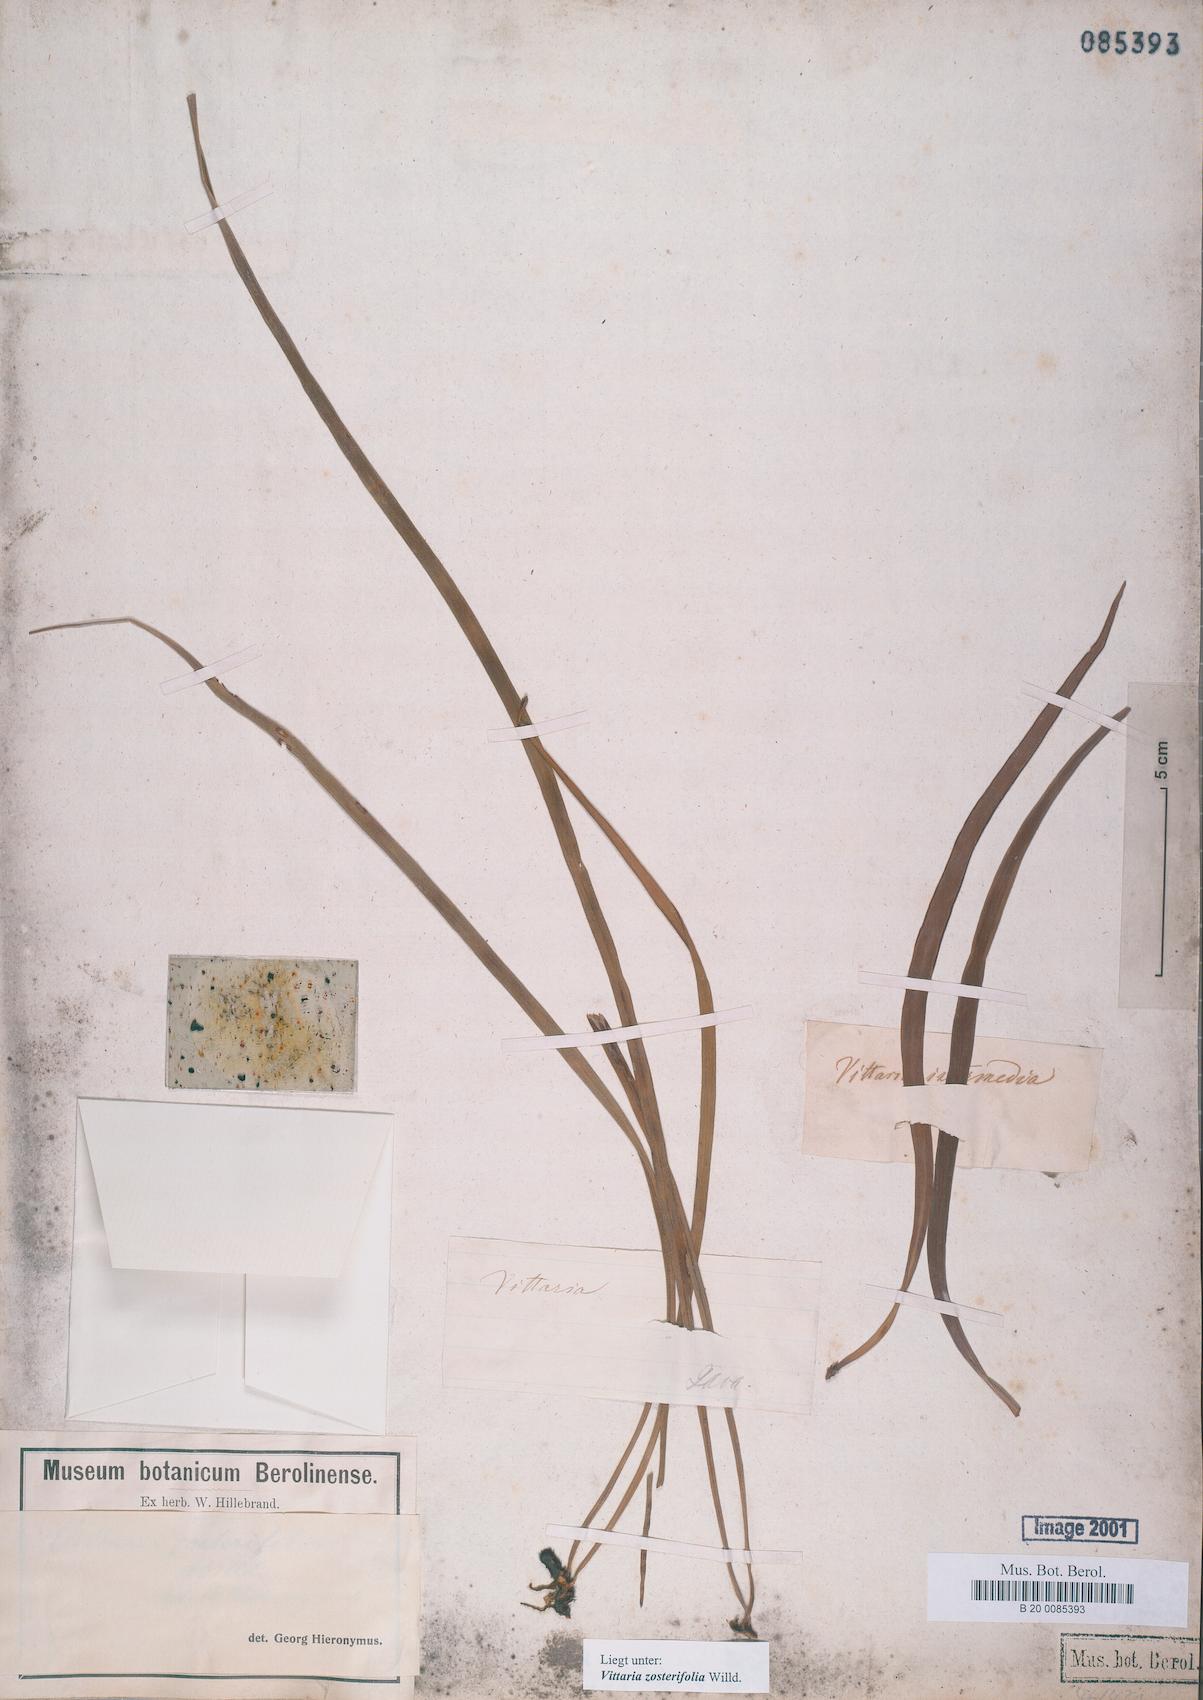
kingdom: Plantae
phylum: Tracheophyta
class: Polypodiopsida
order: Polypodiales
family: Pteridaceae
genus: Haplopteris
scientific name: Haplopteris zosterifolia
